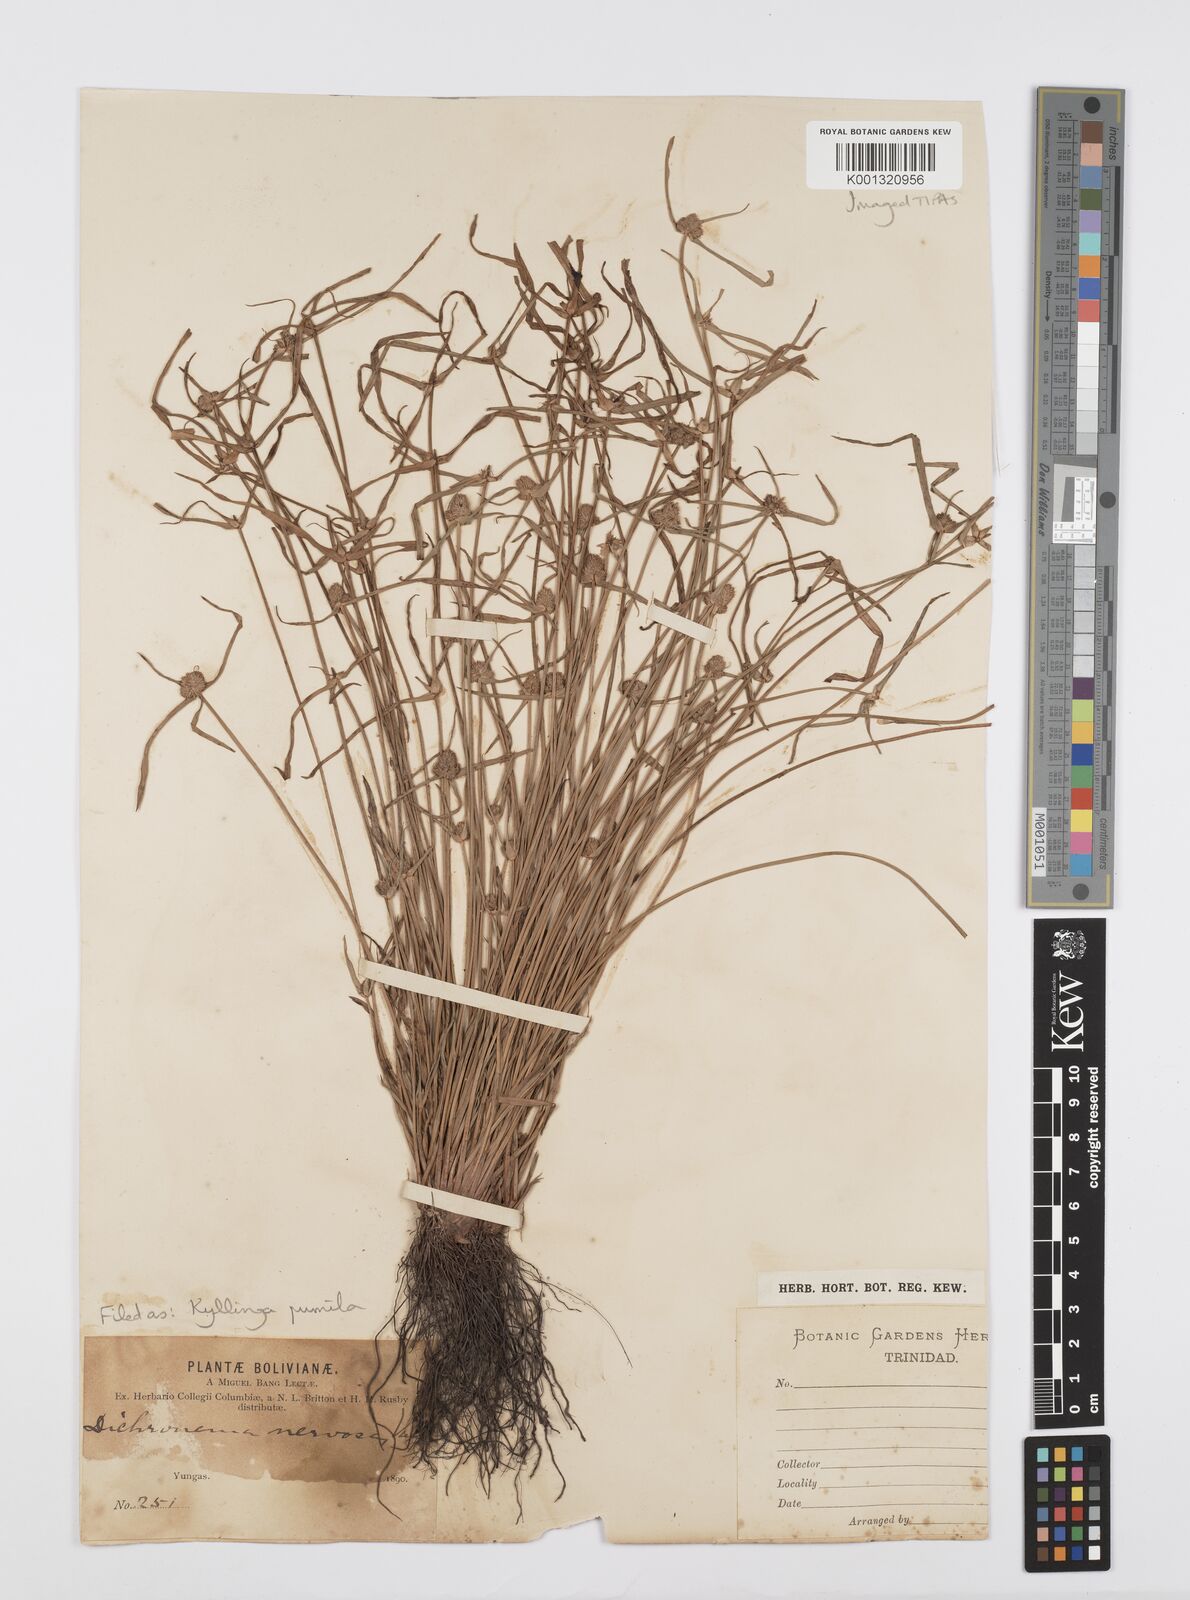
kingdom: Plantae
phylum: Tracheophyta
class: Liliopsida
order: Poales
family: Cyperaceae
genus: Cyperus
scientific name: Cyperus
